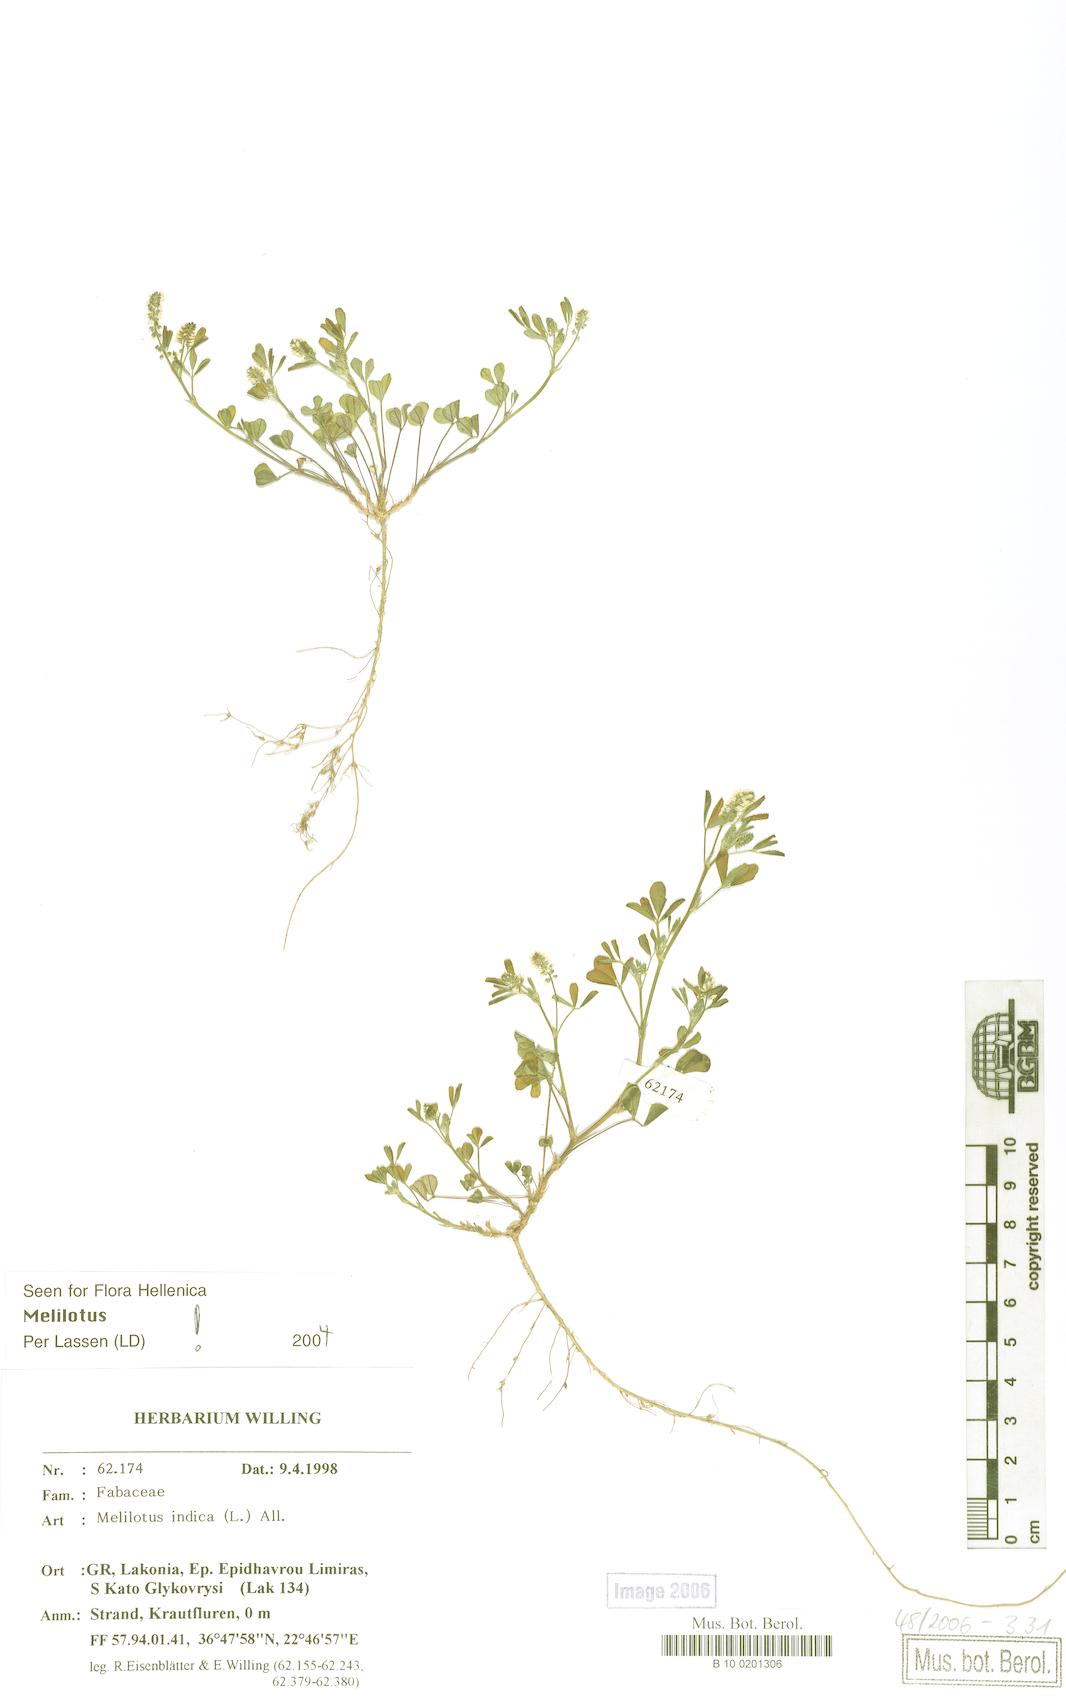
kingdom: Plantae
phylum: Tracheophyta
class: Magnoliopsida
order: Fabales
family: Fabaceae
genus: Melilotus
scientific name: Melilotus indicus
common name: Small melilot
